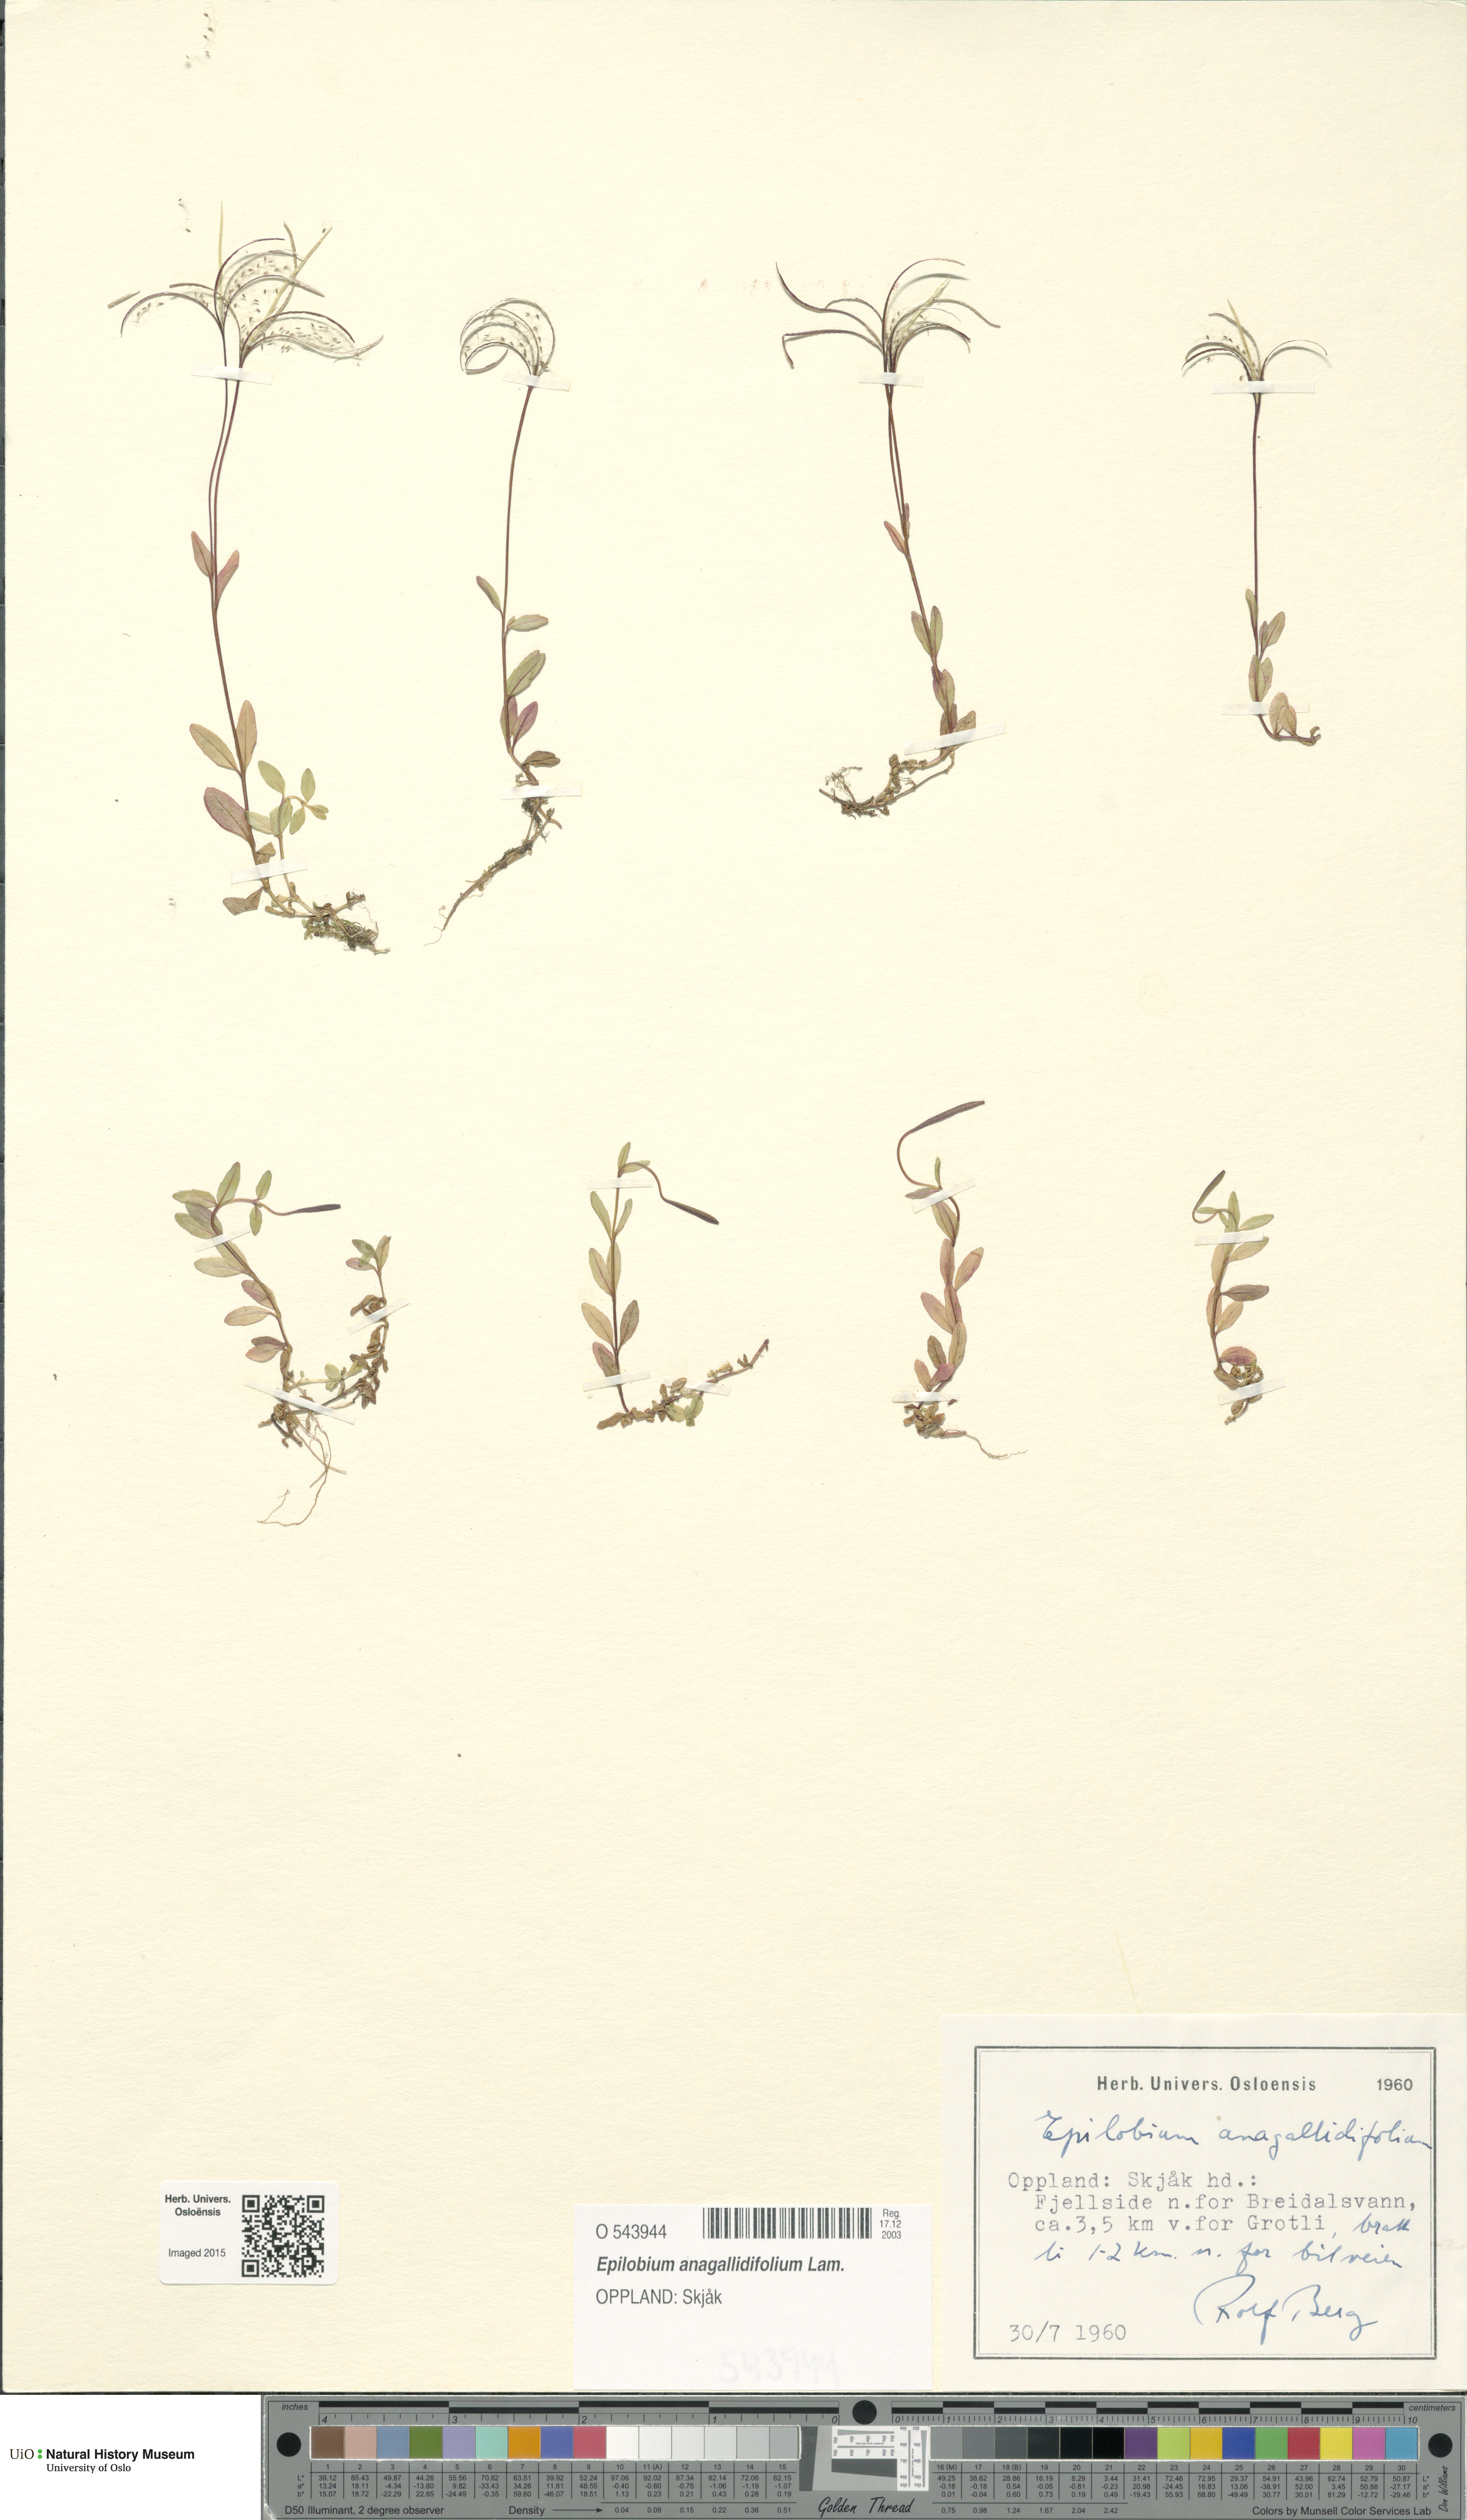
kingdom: Plantae
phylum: Tracheophyta
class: Magnoliopsida
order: Myrtales
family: Onagraceae
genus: Epilobium
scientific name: Epilobium anagallidifolium
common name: Alpine willowherb
